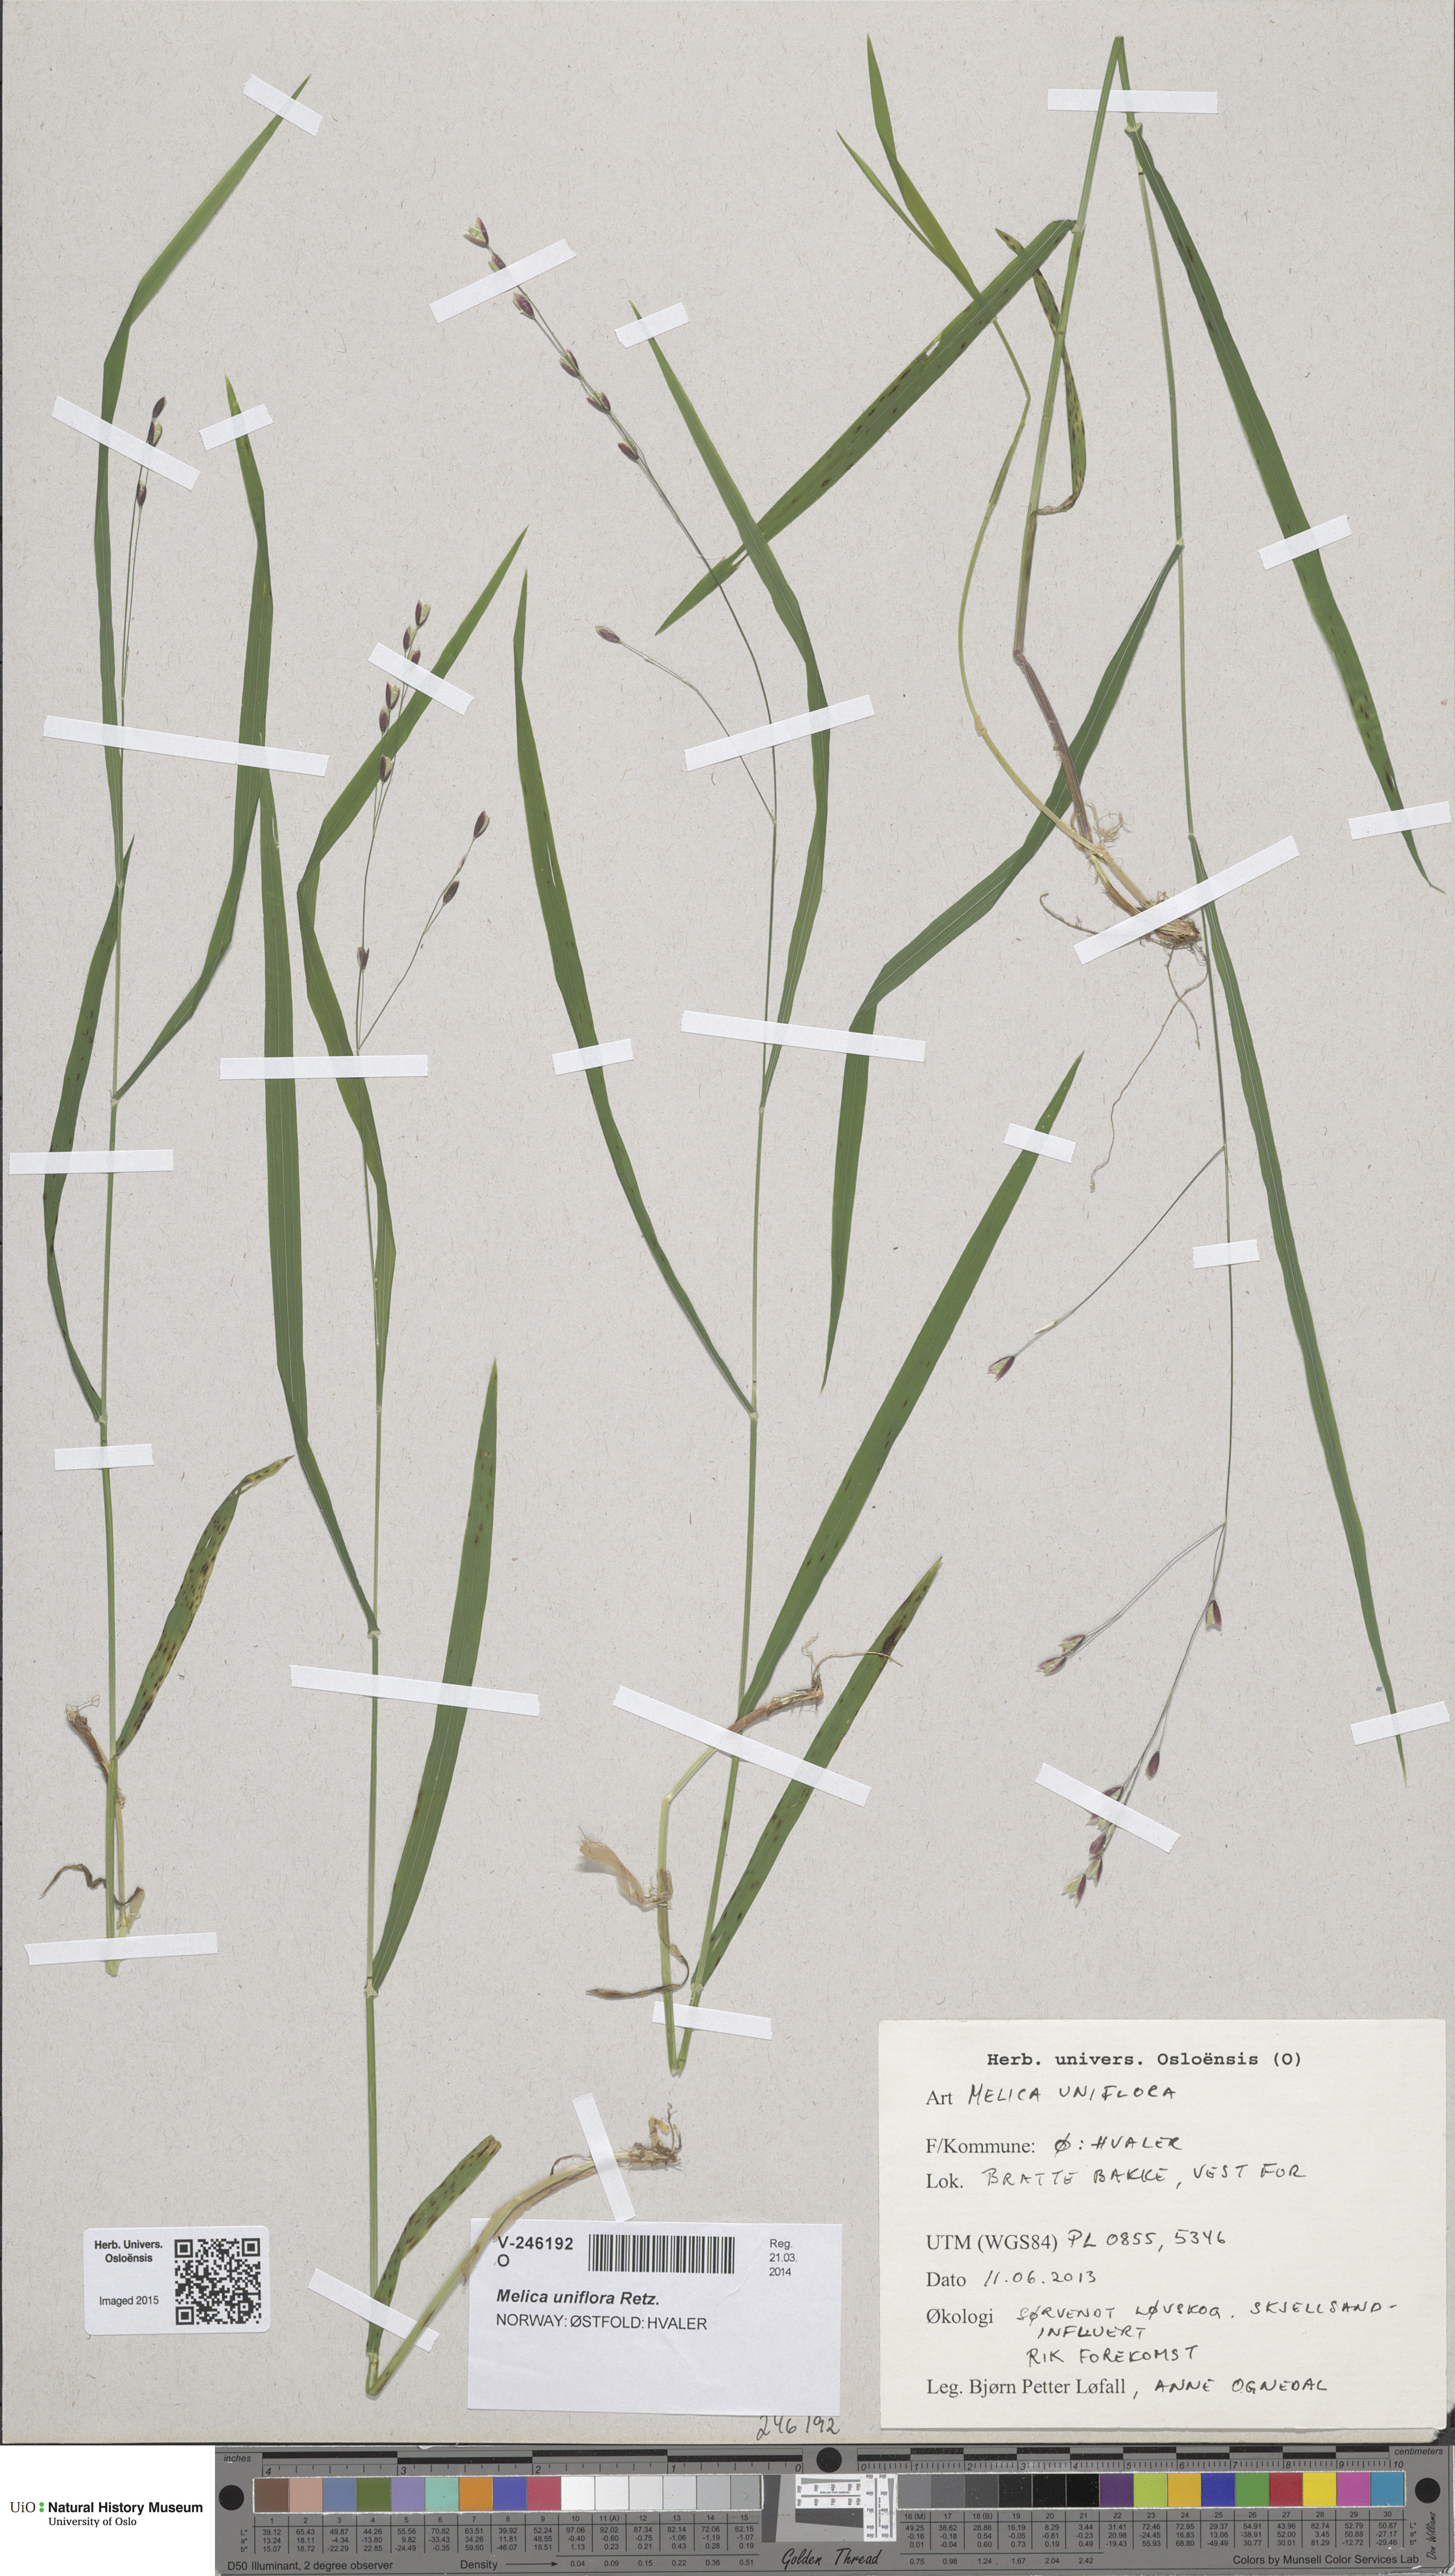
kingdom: Plantae
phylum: Tracheophyta
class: Liliopsida
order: Poales
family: Poaceae
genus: Melica
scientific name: Melica uniflora
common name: Wood melick
